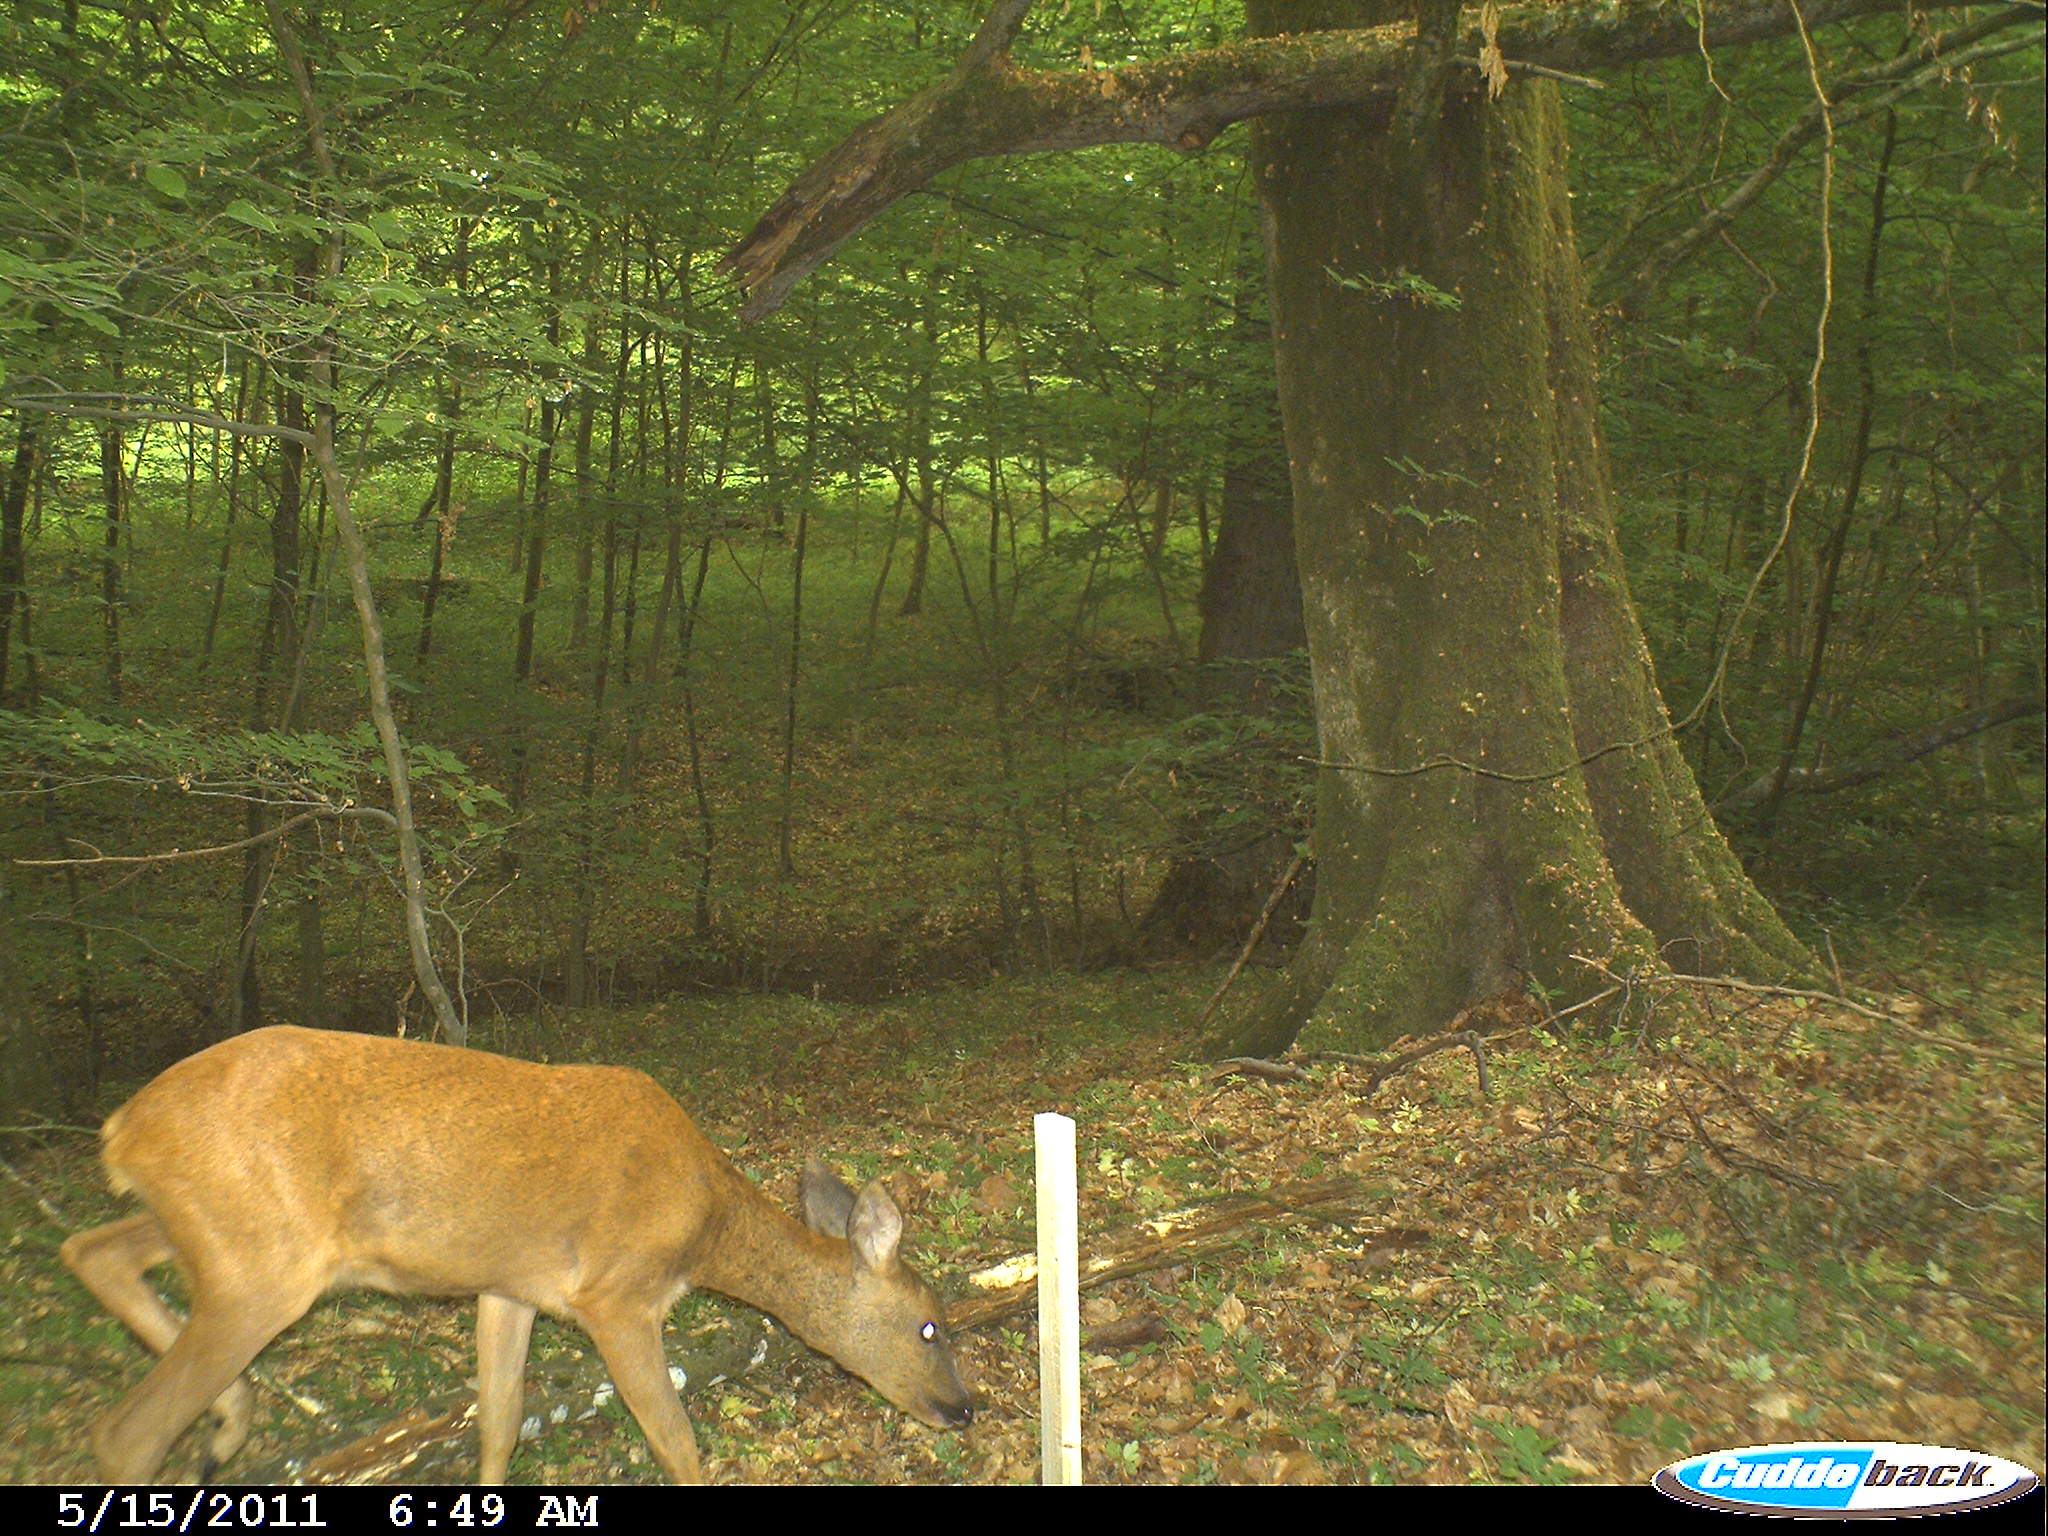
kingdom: Animalia
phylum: Chordata
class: Mammalia
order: Artiodactyla
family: Cervidae
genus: Capreolus
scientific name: Capreolus capreolus
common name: Western roe deer
